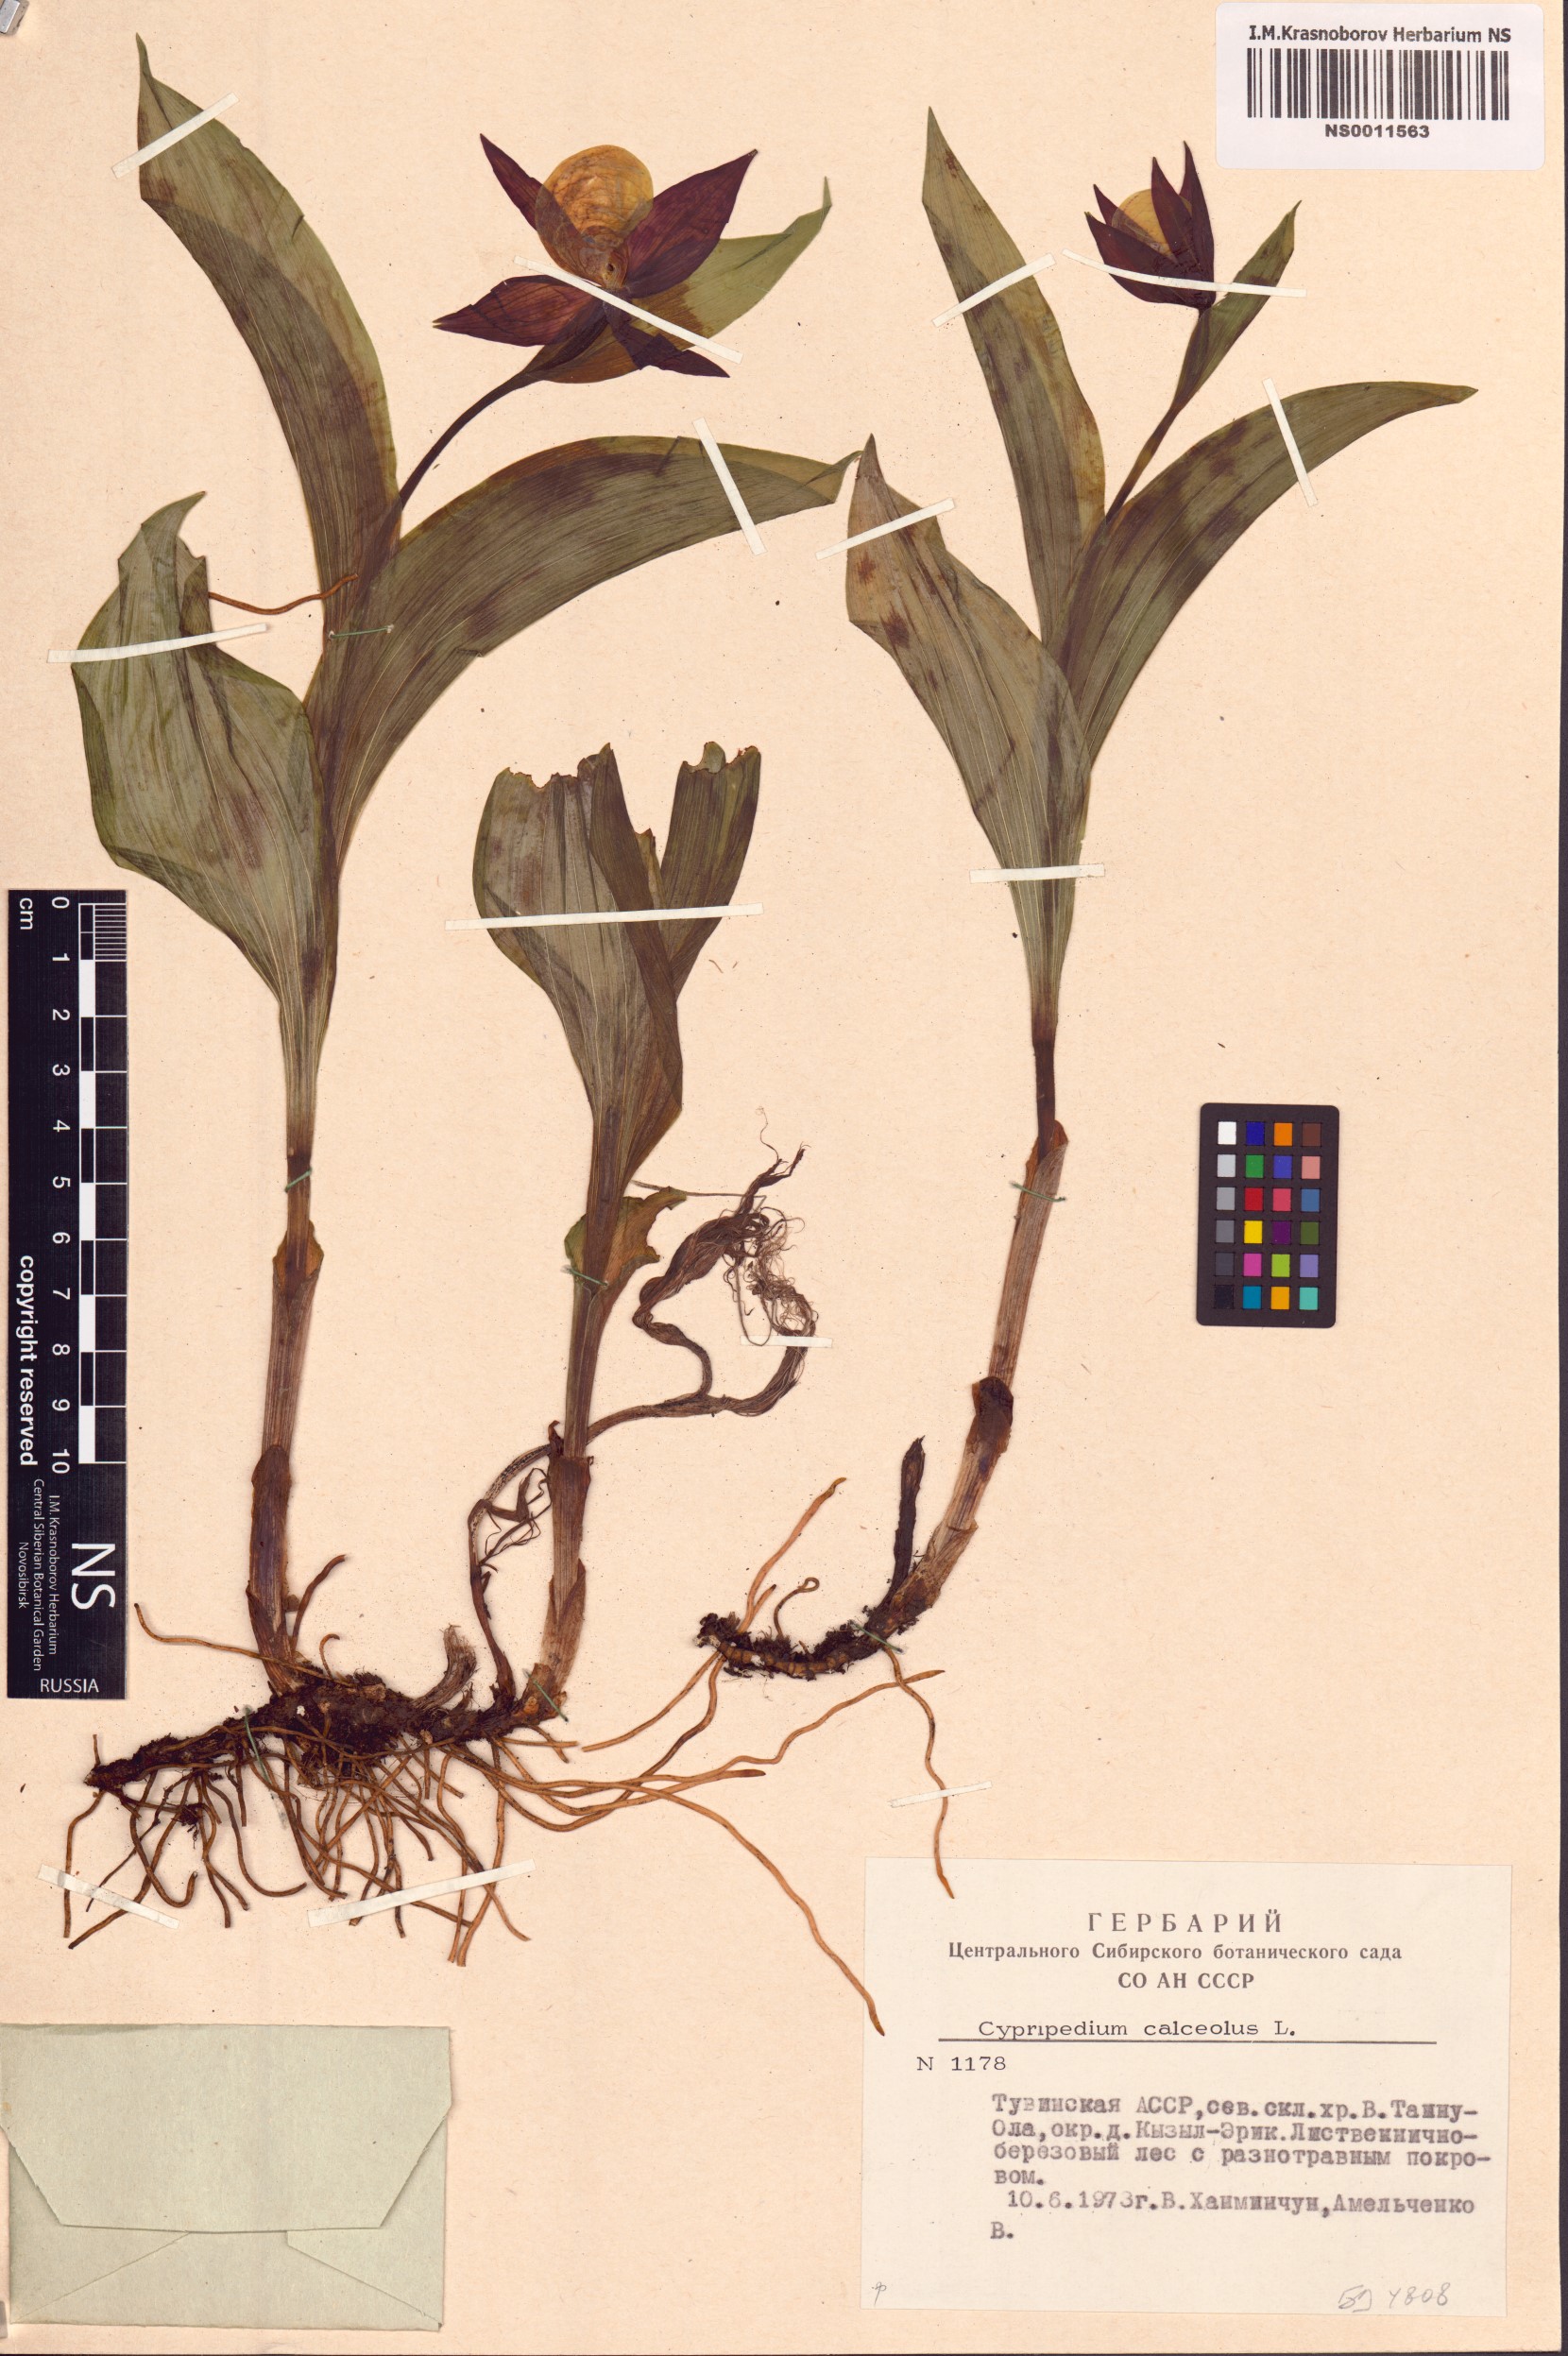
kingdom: Plantae
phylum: Tracheophyta
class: Liliopsida
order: Asparagales
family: Orchidaceae
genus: Cypripedium
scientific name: Cypripedium calceolus
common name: Lady's-slipper
